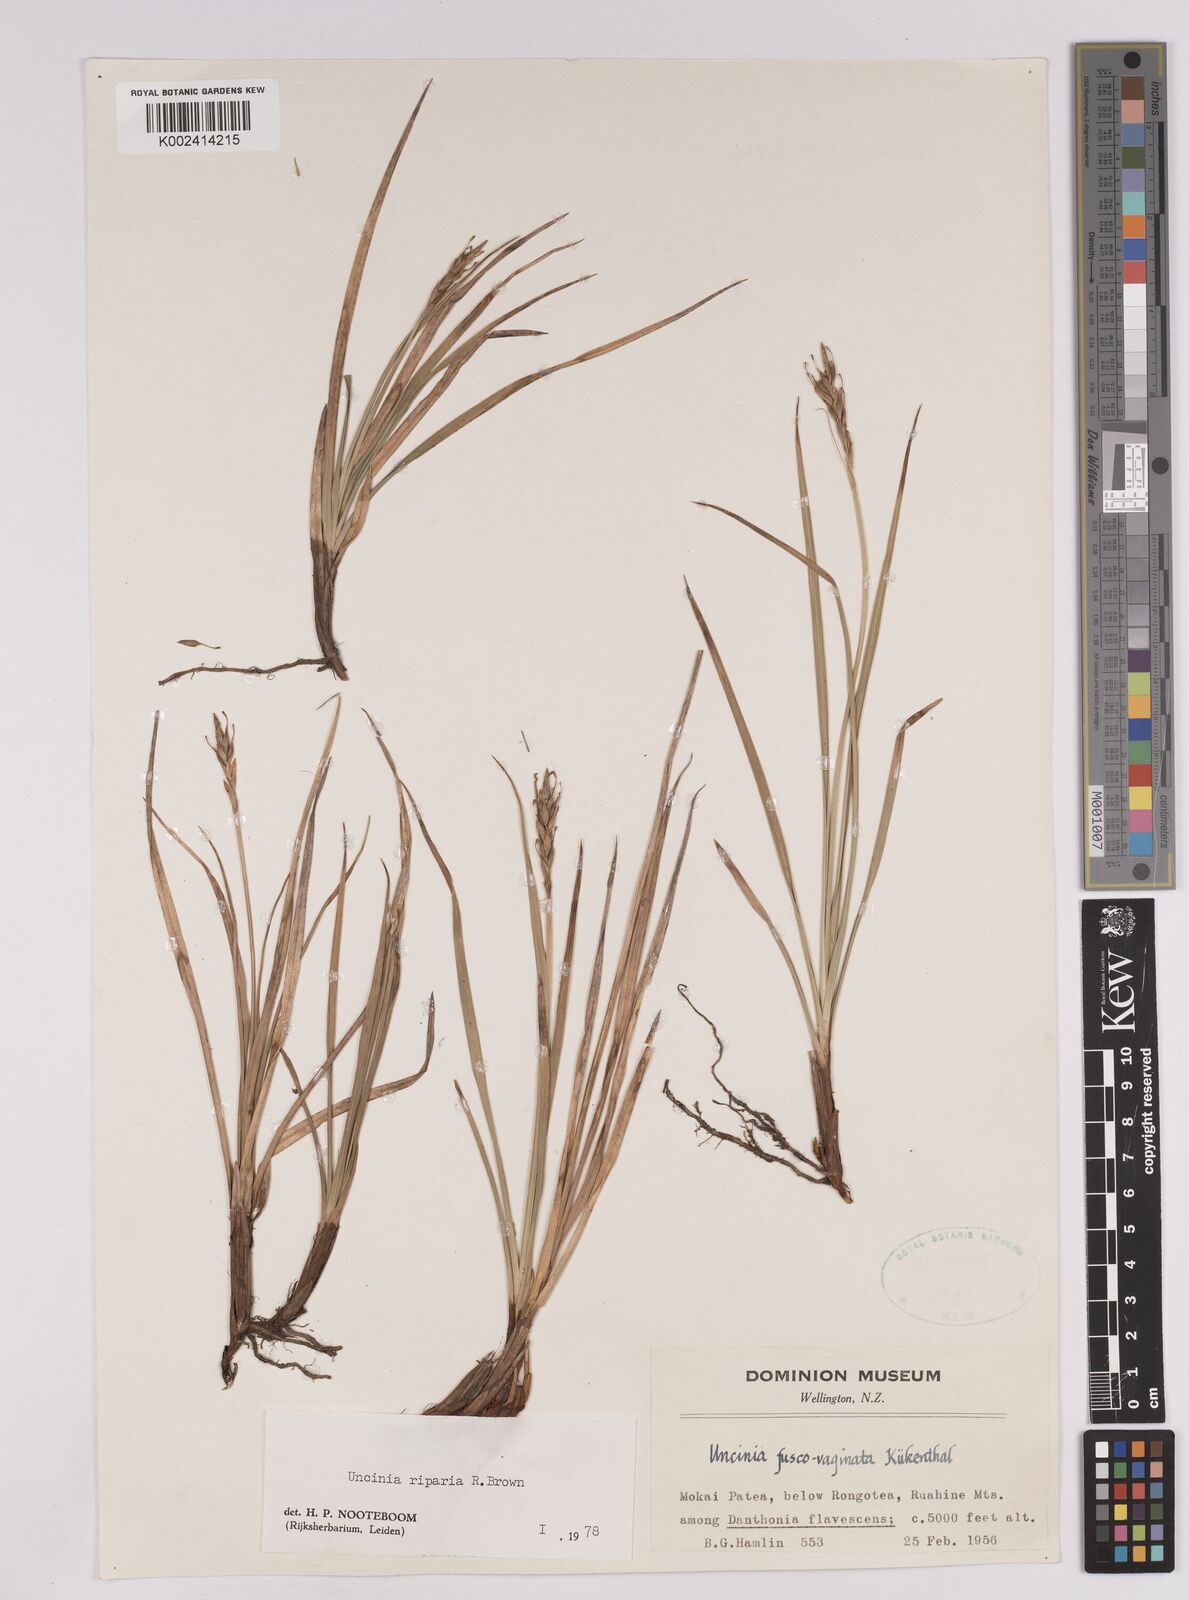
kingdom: Plantae
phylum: Tracheophyta
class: Liliopsida
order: Poales
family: Cyperaceae
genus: Carex
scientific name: Carex penalpina
